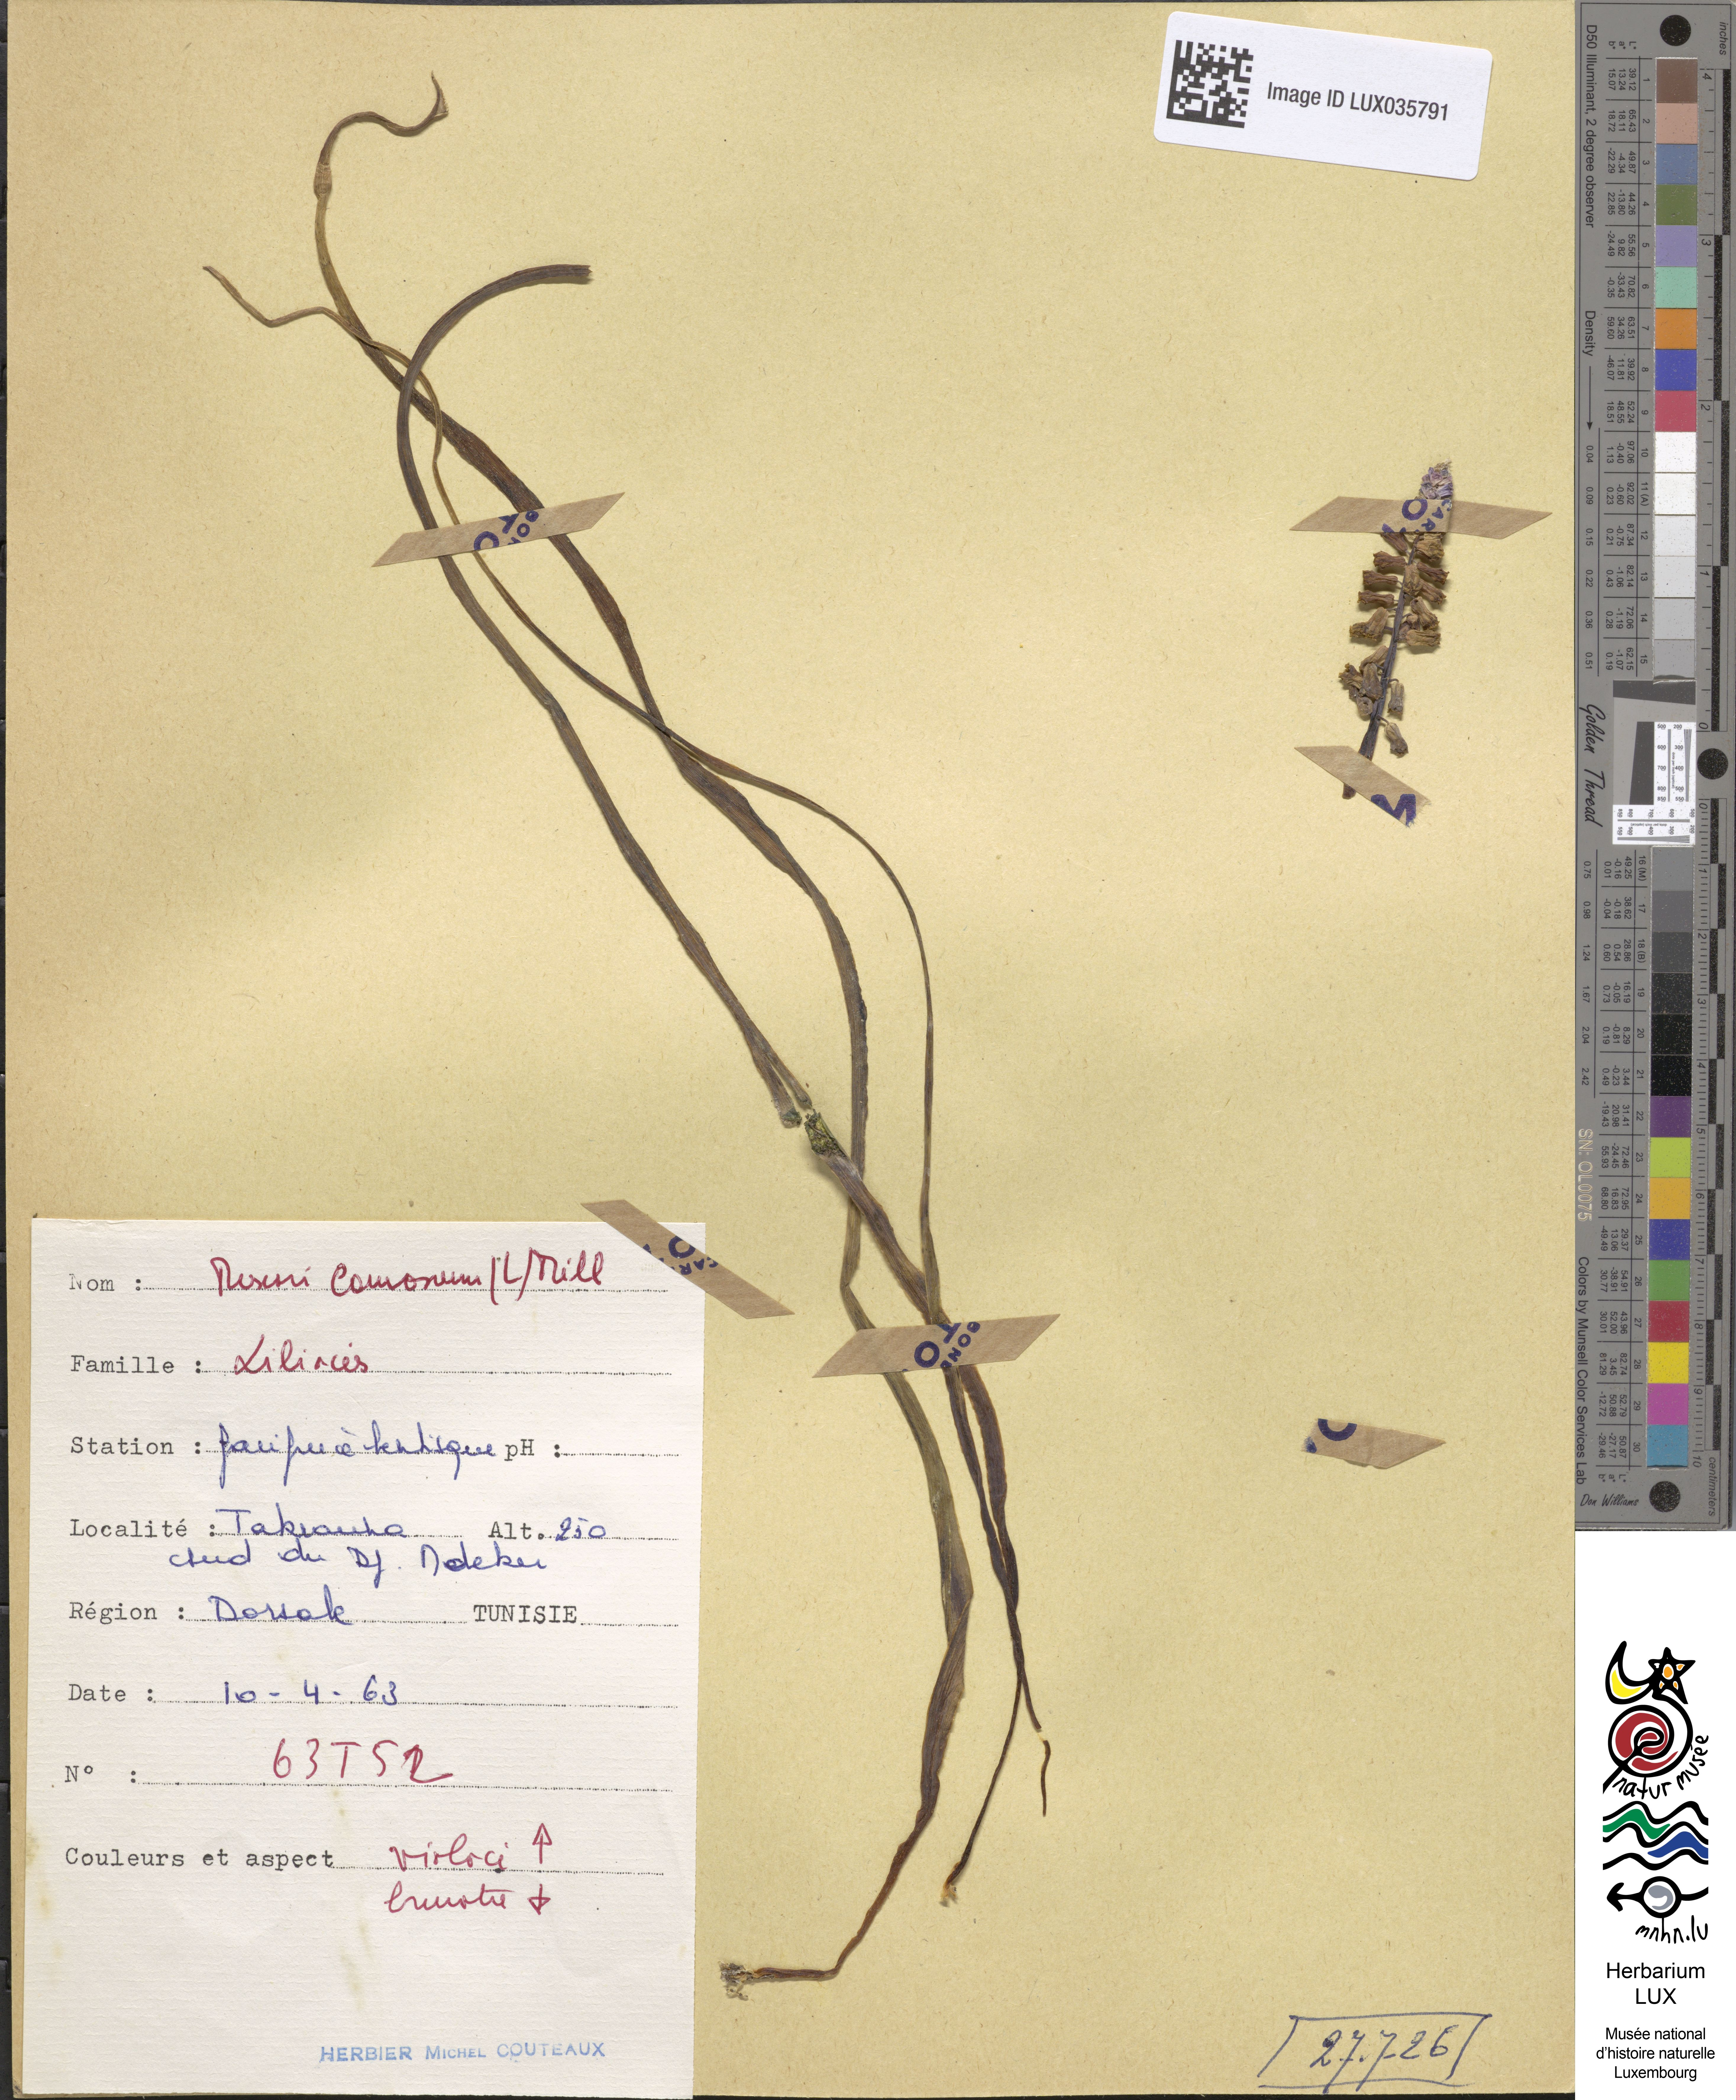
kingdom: Plantae
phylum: Tracheophyta
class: Liliopsida
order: Asparagales
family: Asparagaceae
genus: Muscari
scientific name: Muscari comosum
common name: Tassel hyacinth
